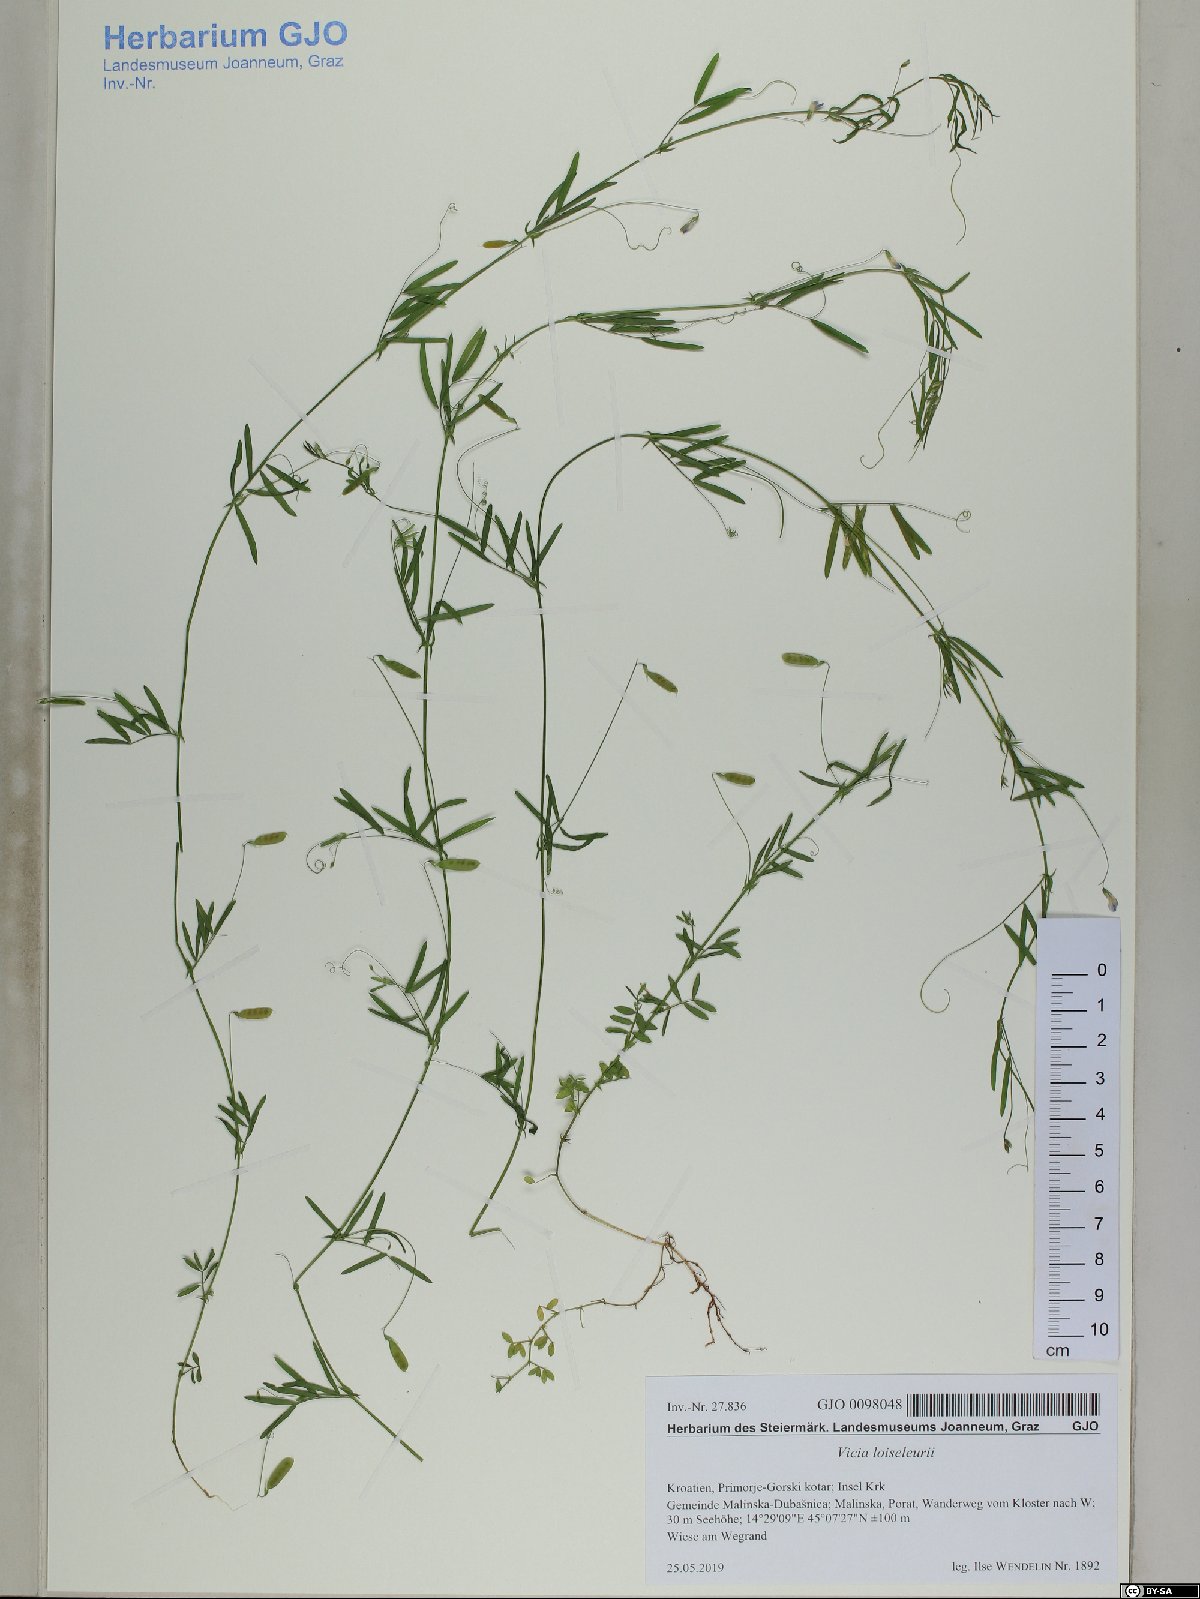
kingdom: Plantae
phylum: Tracheophyta
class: Magnoliopsida
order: Fabales
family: Fabaceae
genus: Vicia
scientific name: Vicia parviflora
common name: Slender tare
